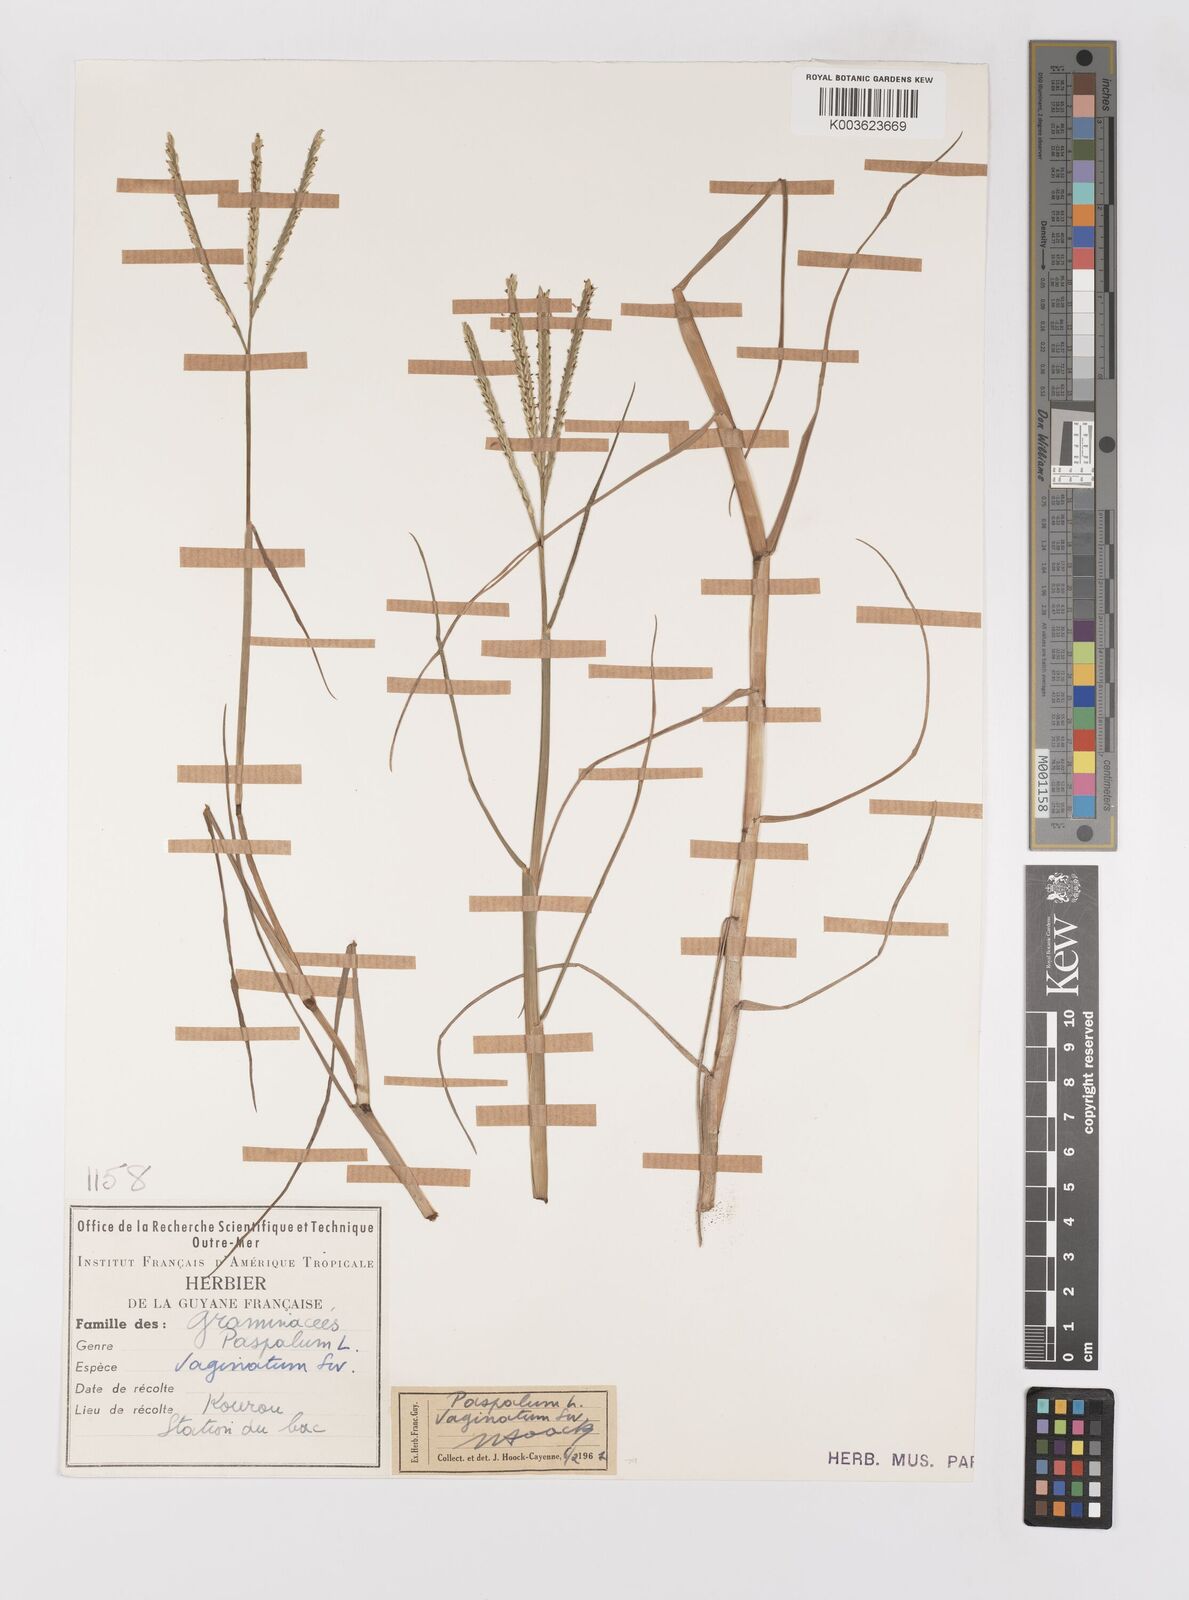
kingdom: Plantae
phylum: Tracheophyta
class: Liliopsida
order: Poales
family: Poaceae
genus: Paspalum
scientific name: Paspalum vaginatum
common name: Seashore paspalum
